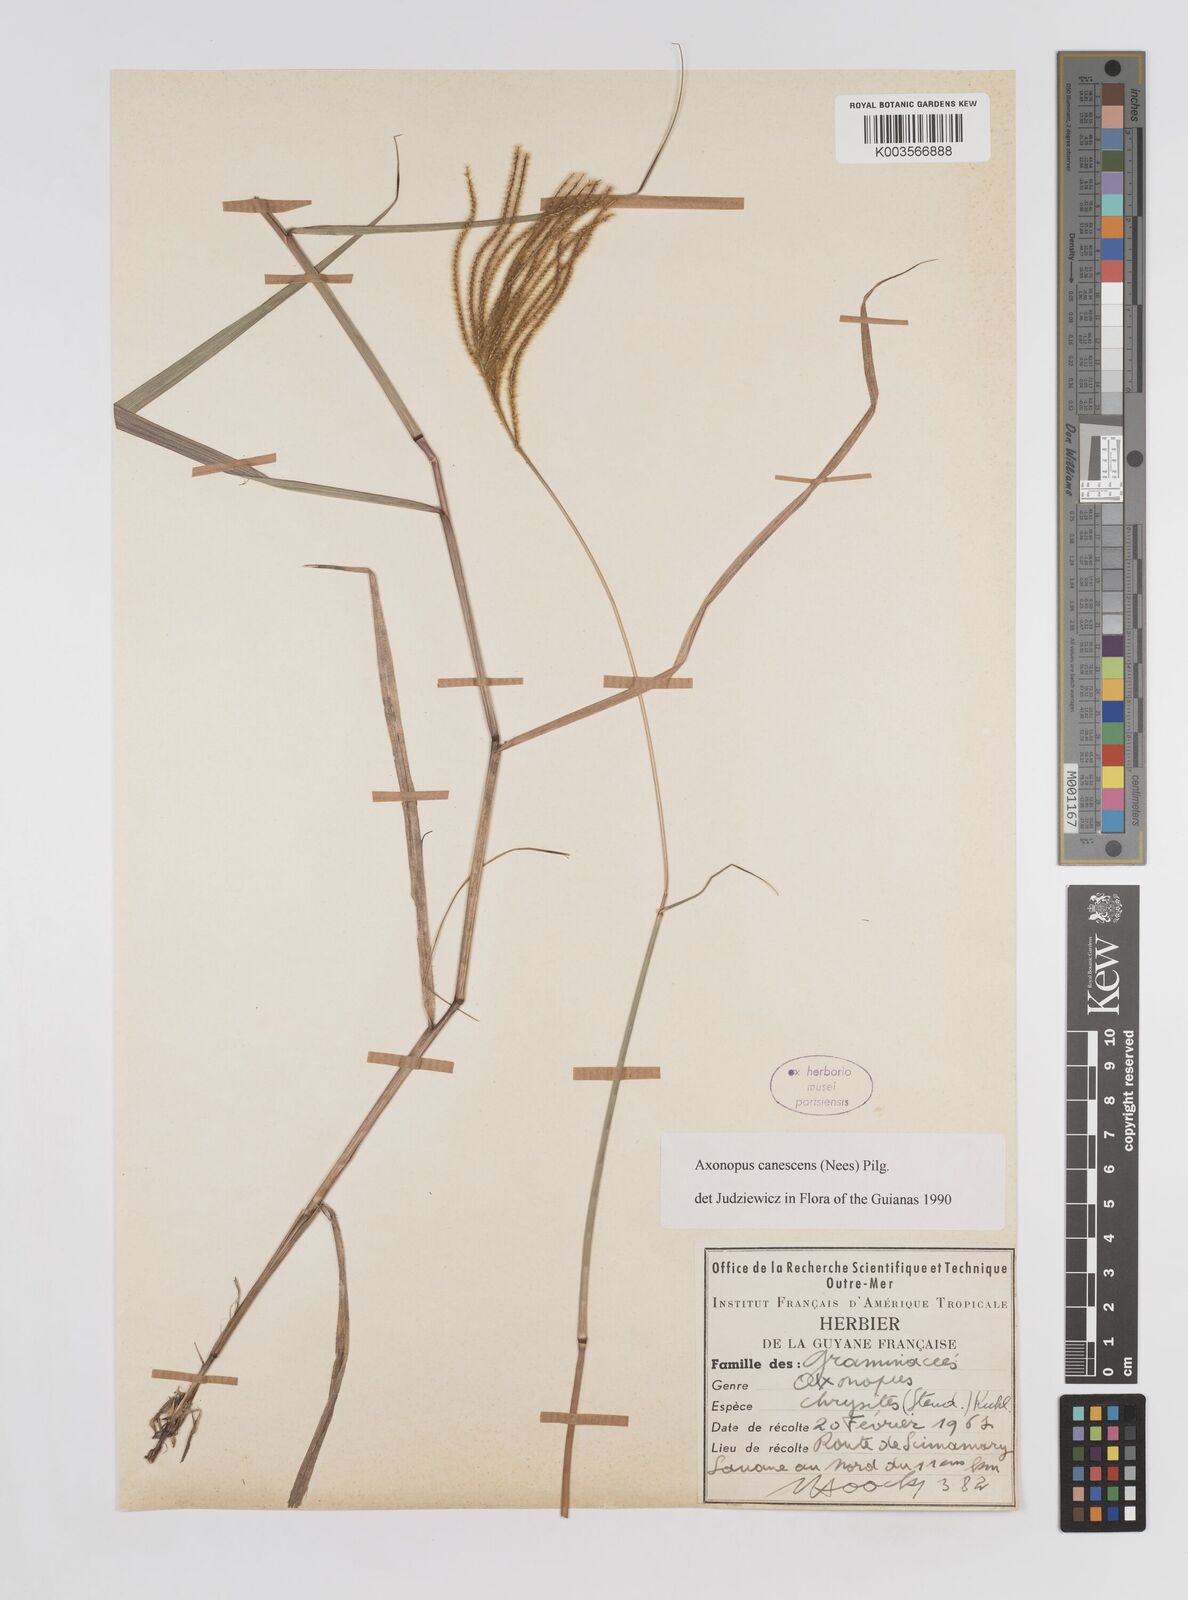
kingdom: Plantae
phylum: Tracheophyta
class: Liliopsida
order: Poales
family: Poaceae
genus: Axonopus
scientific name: Axonopus aureus
